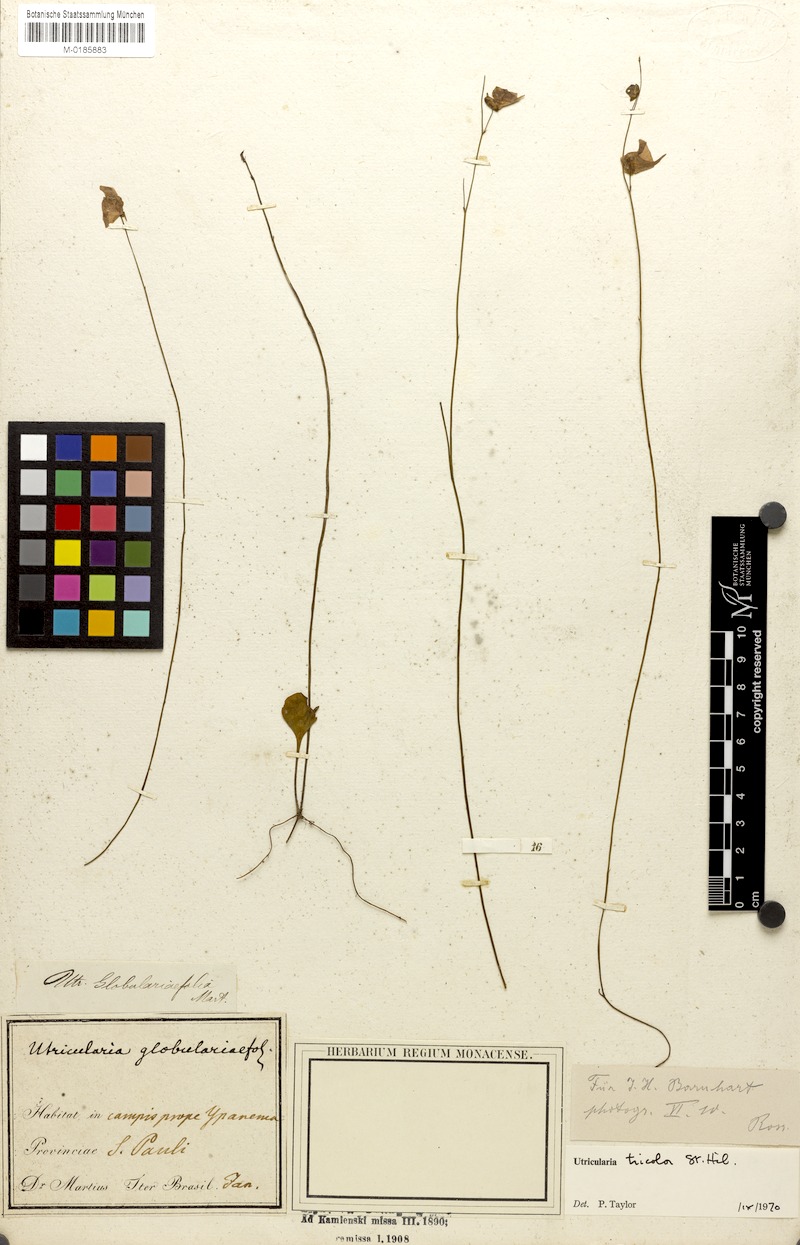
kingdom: Plantae
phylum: Tracheophyta
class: Magnoliopsida
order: Lamiales
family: Lentibulariaceae
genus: Utricularia
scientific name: Utricularia tricolor
